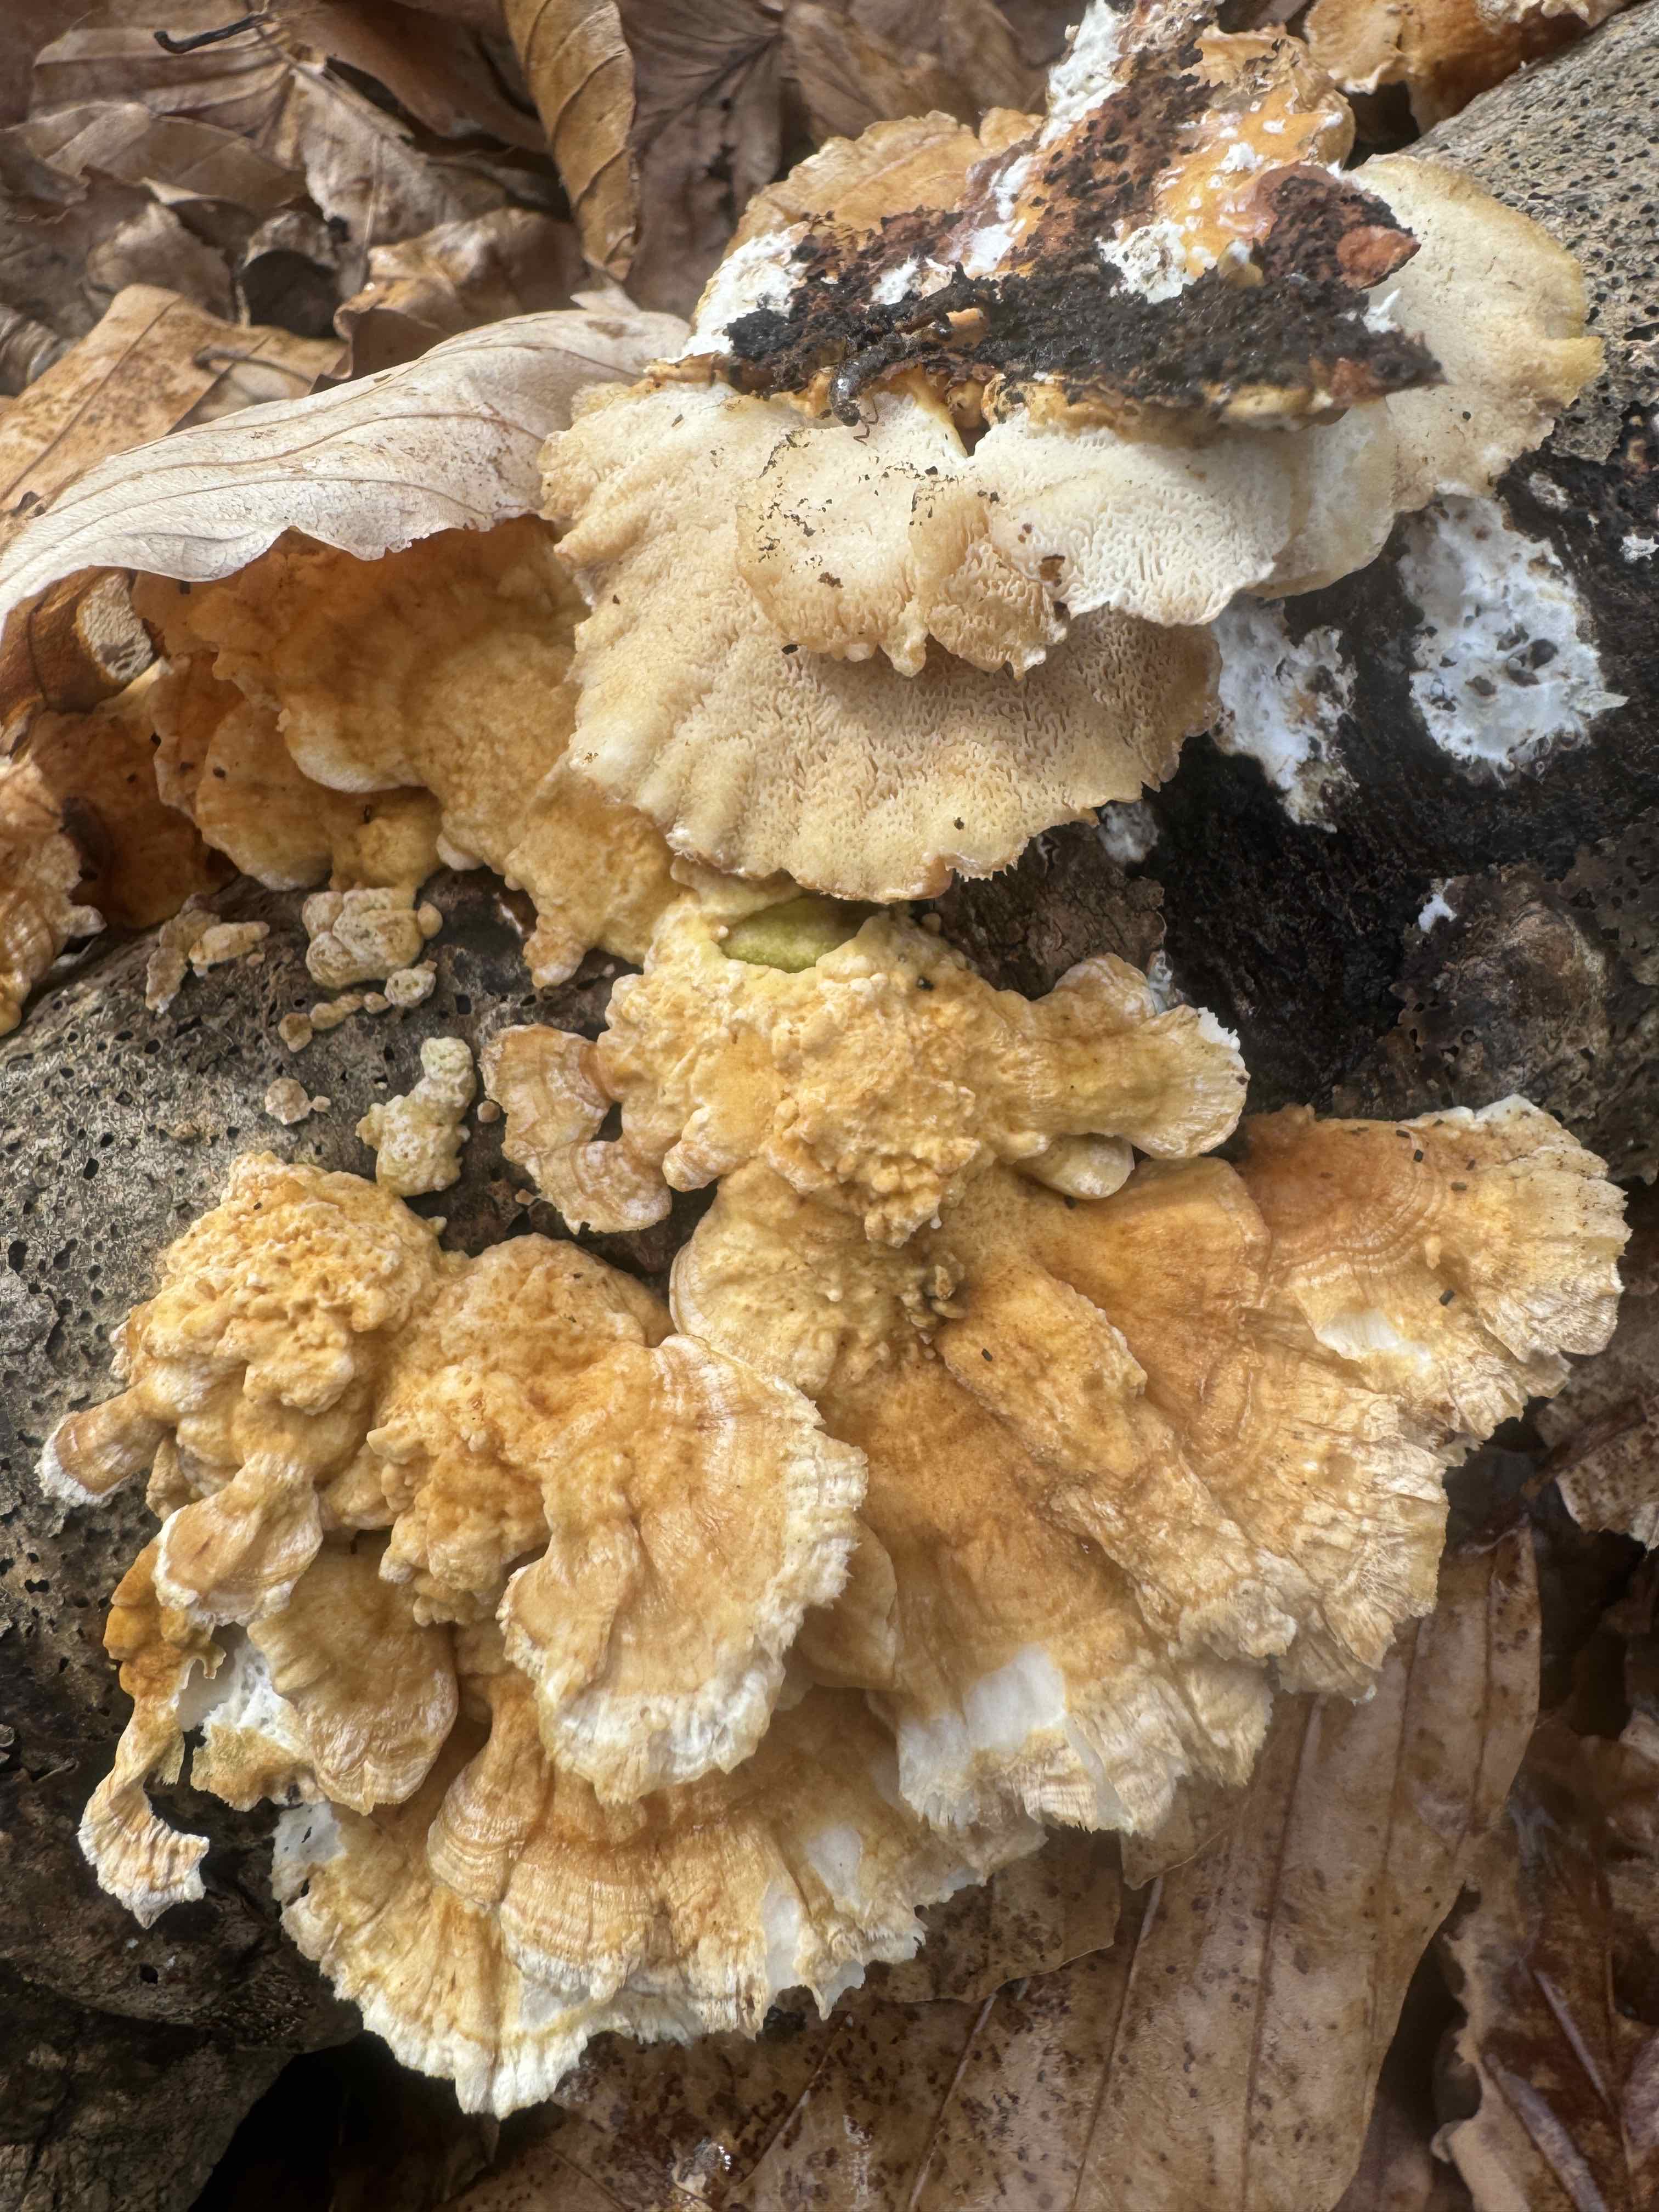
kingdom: Fungi
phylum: Basidiomycota
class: Agaricomycetes
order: Polyporales
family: Polyporaceae
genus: Trametes
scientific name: Trametes ochracea
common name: bæltet læderporesvamp
